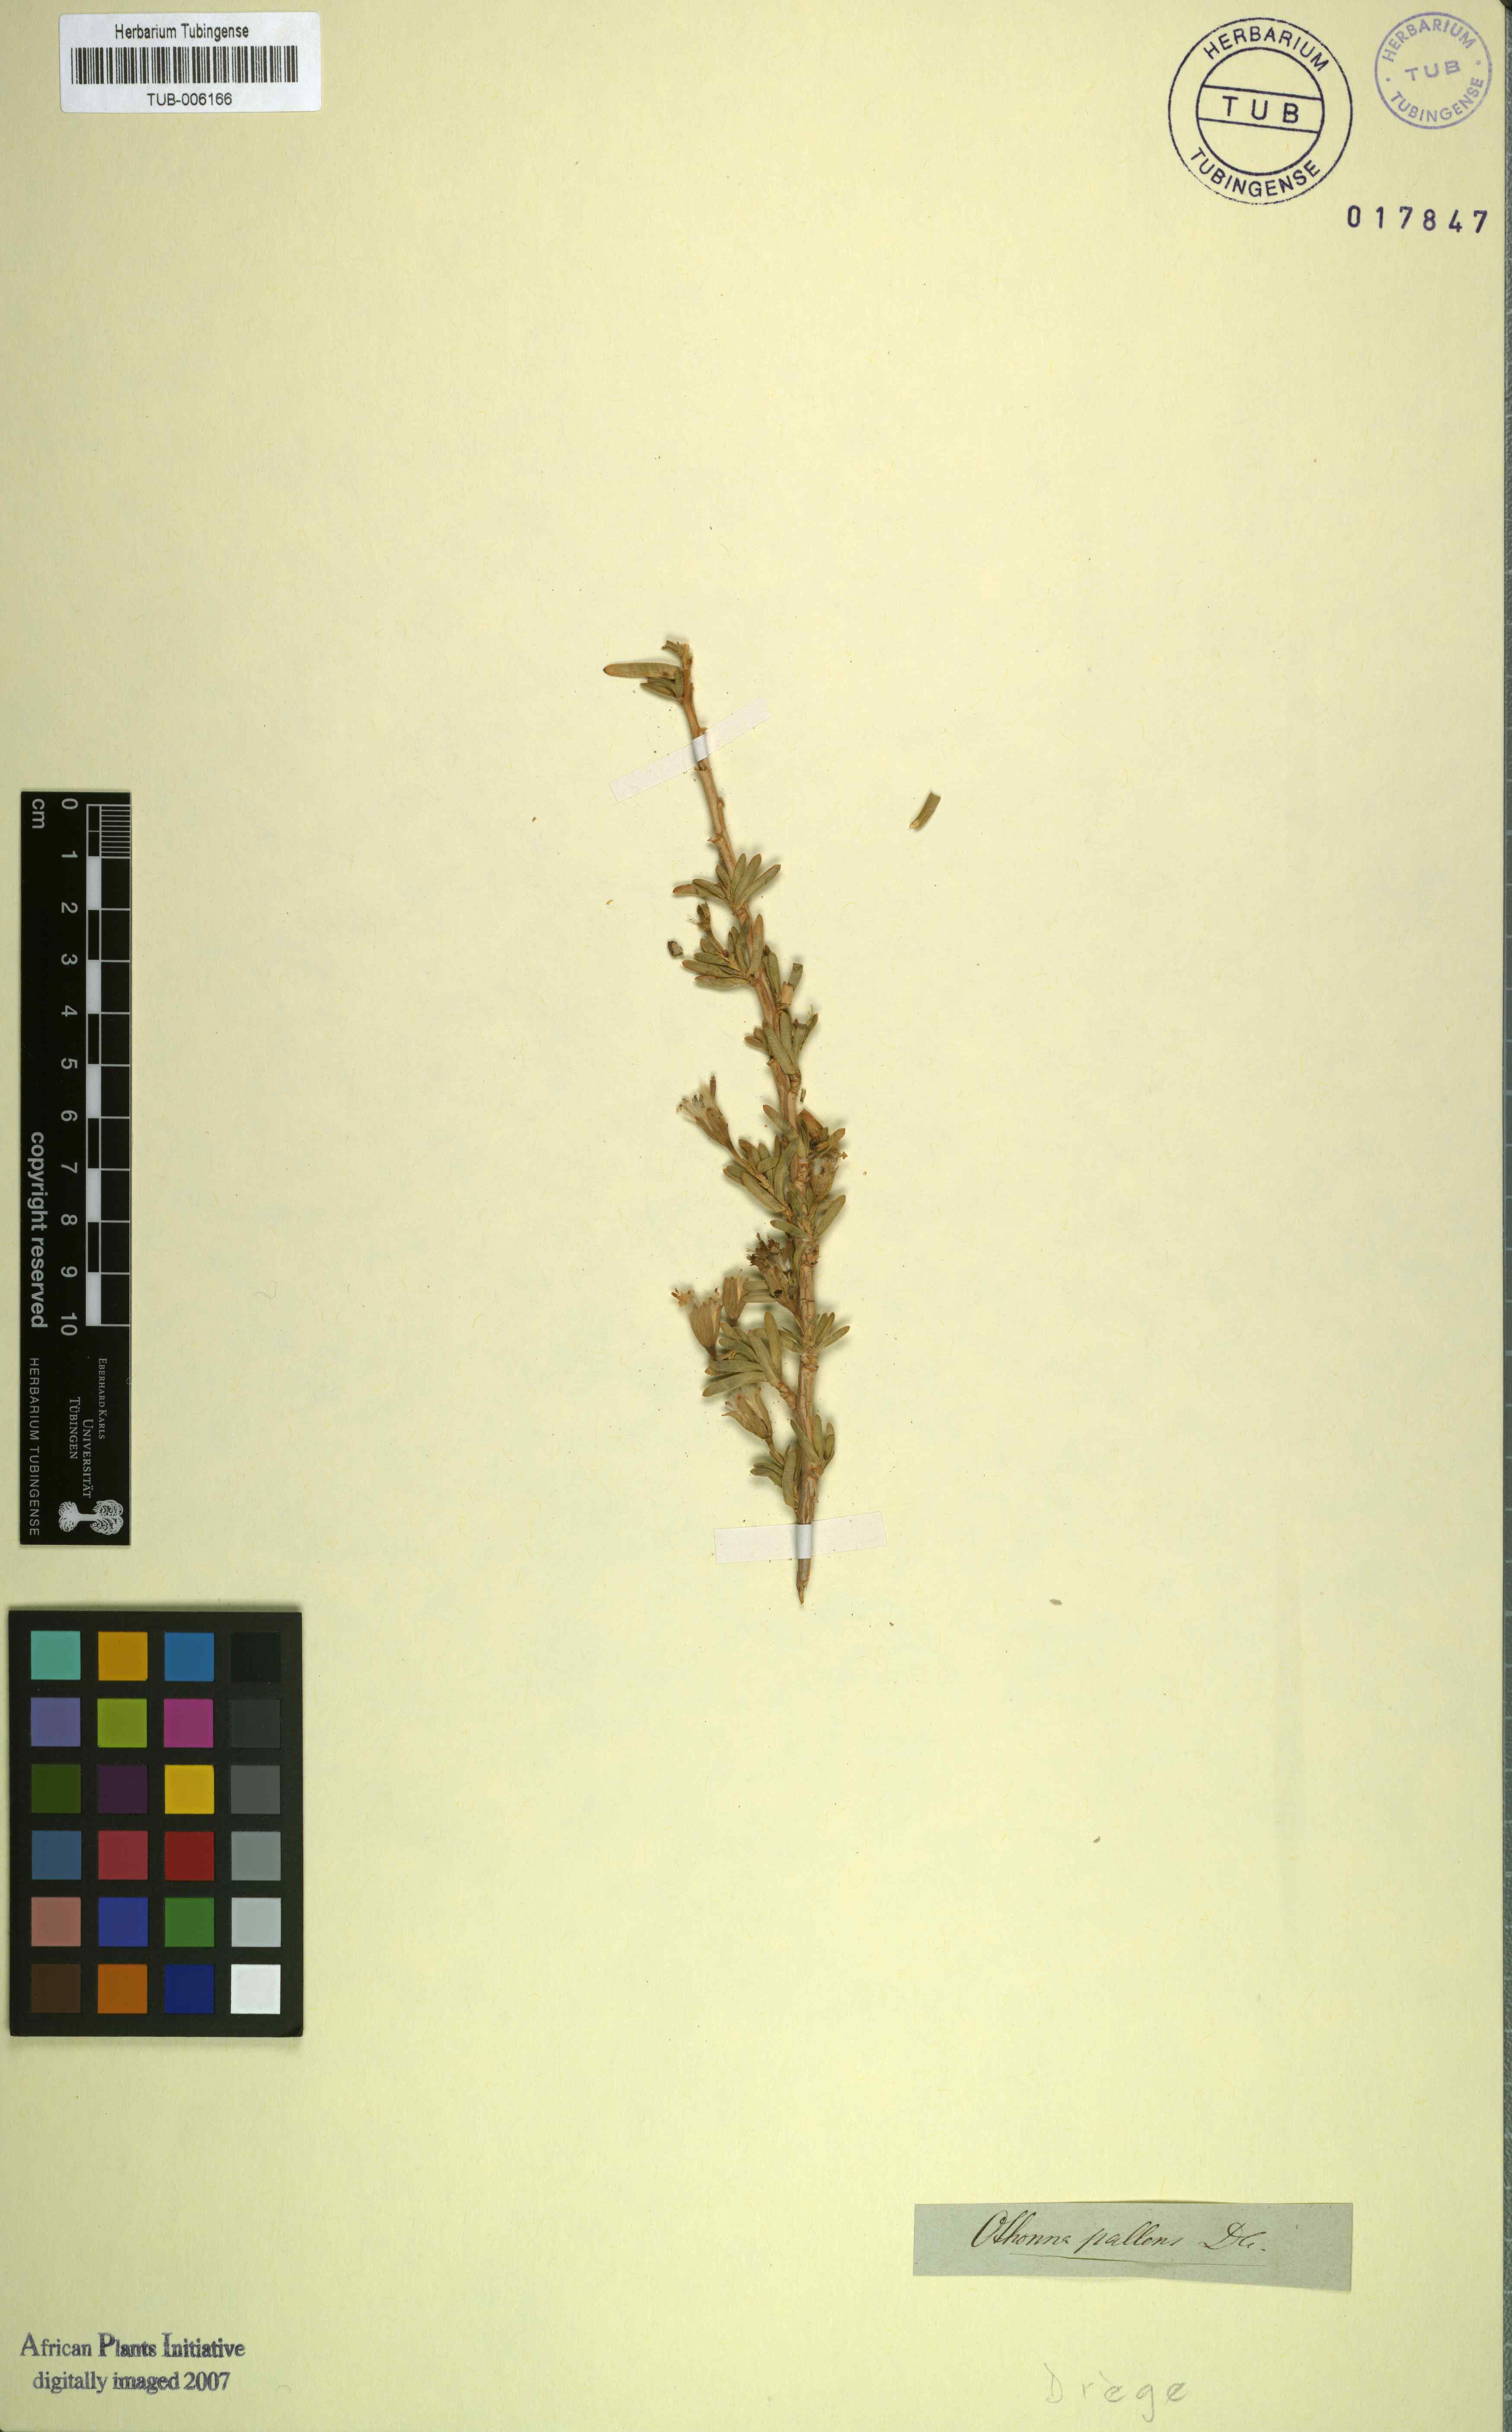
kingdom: Plantae
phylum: Tracheophyta
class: Magnoliopsida
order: Asterales
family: Asteraceae
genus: Hertia
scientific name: Hertia pallens
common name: Springbokbush
